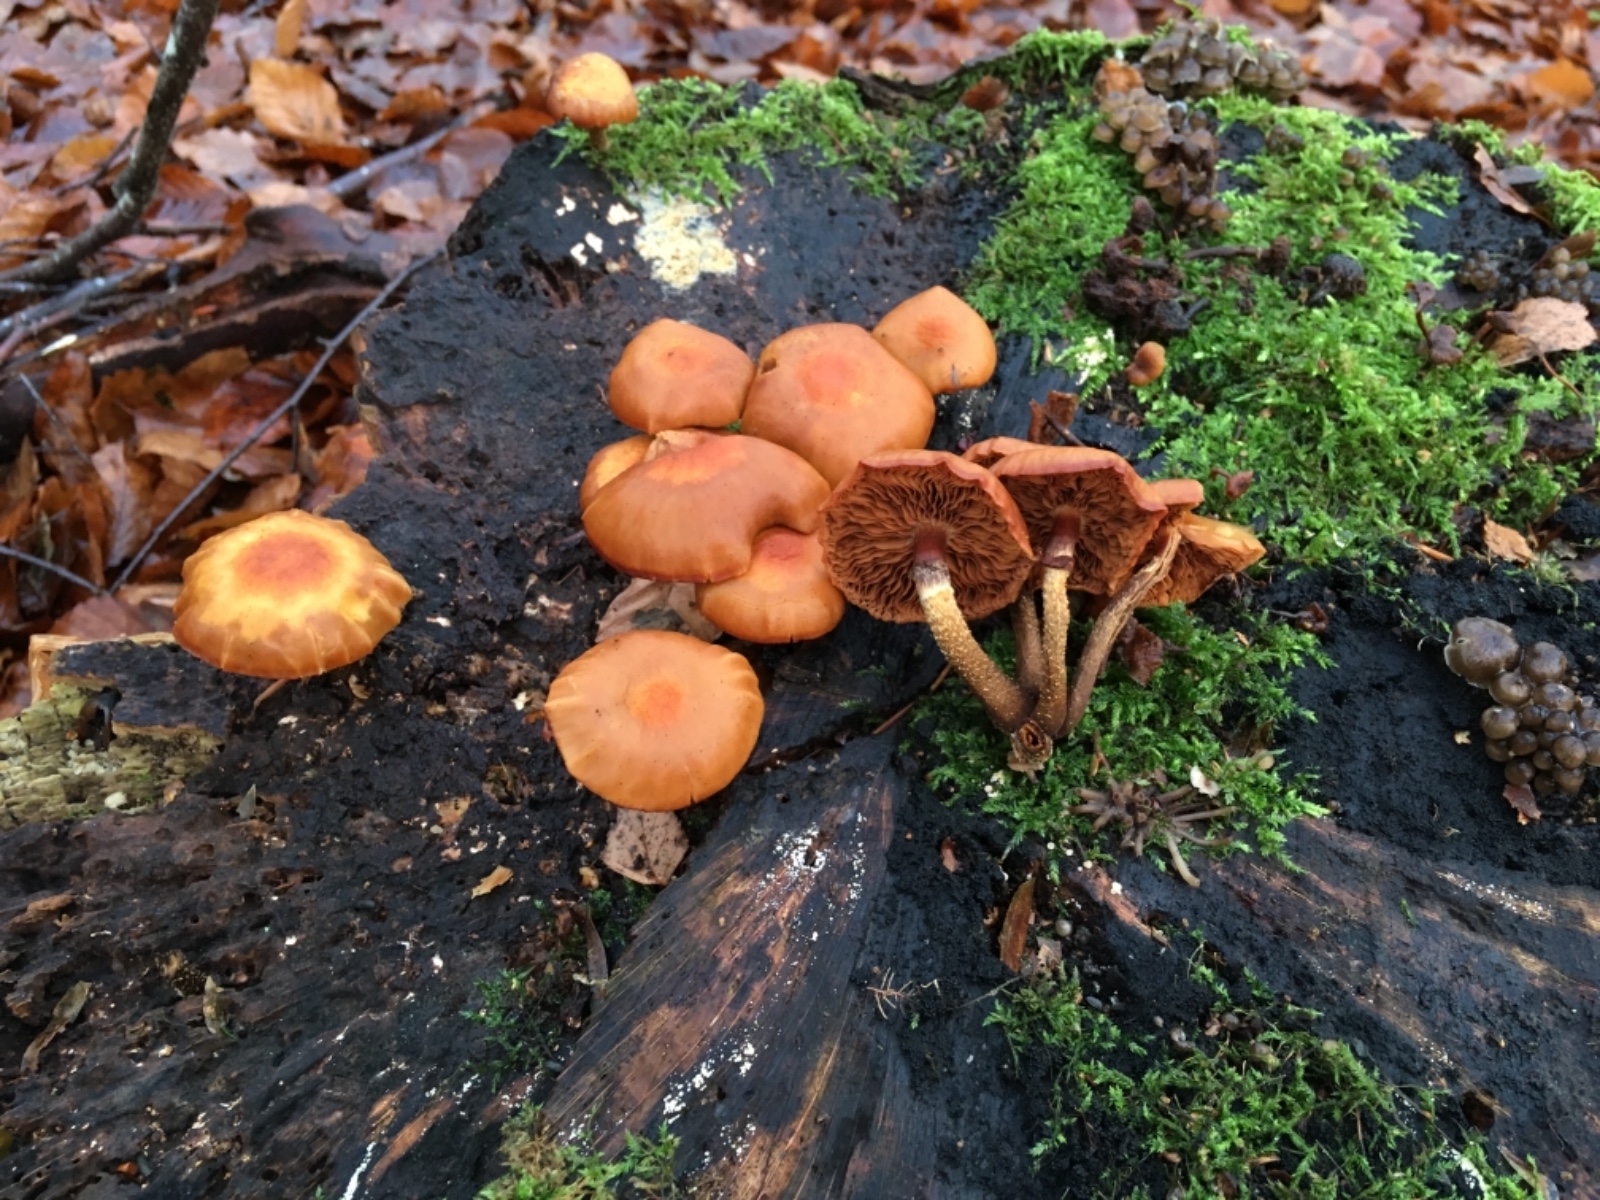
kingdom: Fungi
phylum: Basidiomycota
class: Agaricomycetes
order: Agaricales
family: Strophariaceae
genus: Kuehneromyces
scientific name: Kuehneromyces mutabilis
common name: foranderlig skælhat
